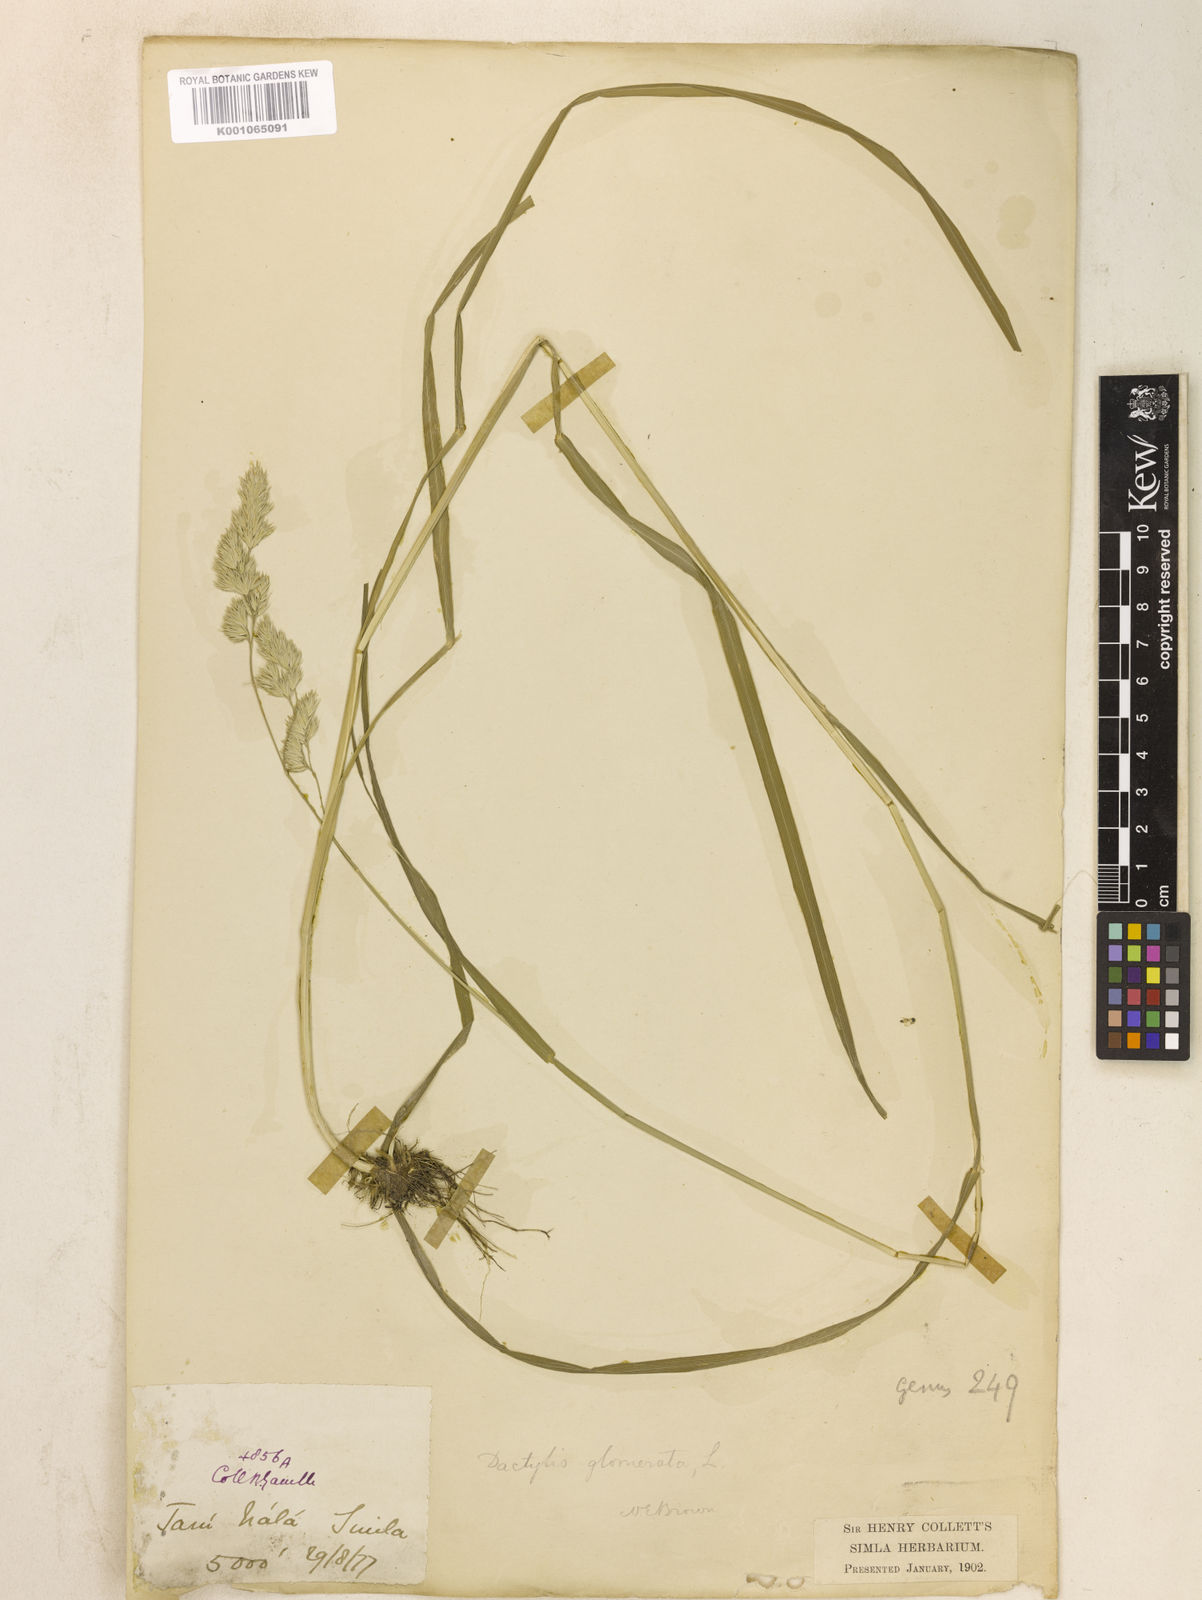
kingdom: Plantae
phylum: Tracheophyta
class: Liliopsida
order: Poales
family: Poaceae
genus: Dactylis
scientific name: Dactylis glomerata
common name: Orchardgrass
